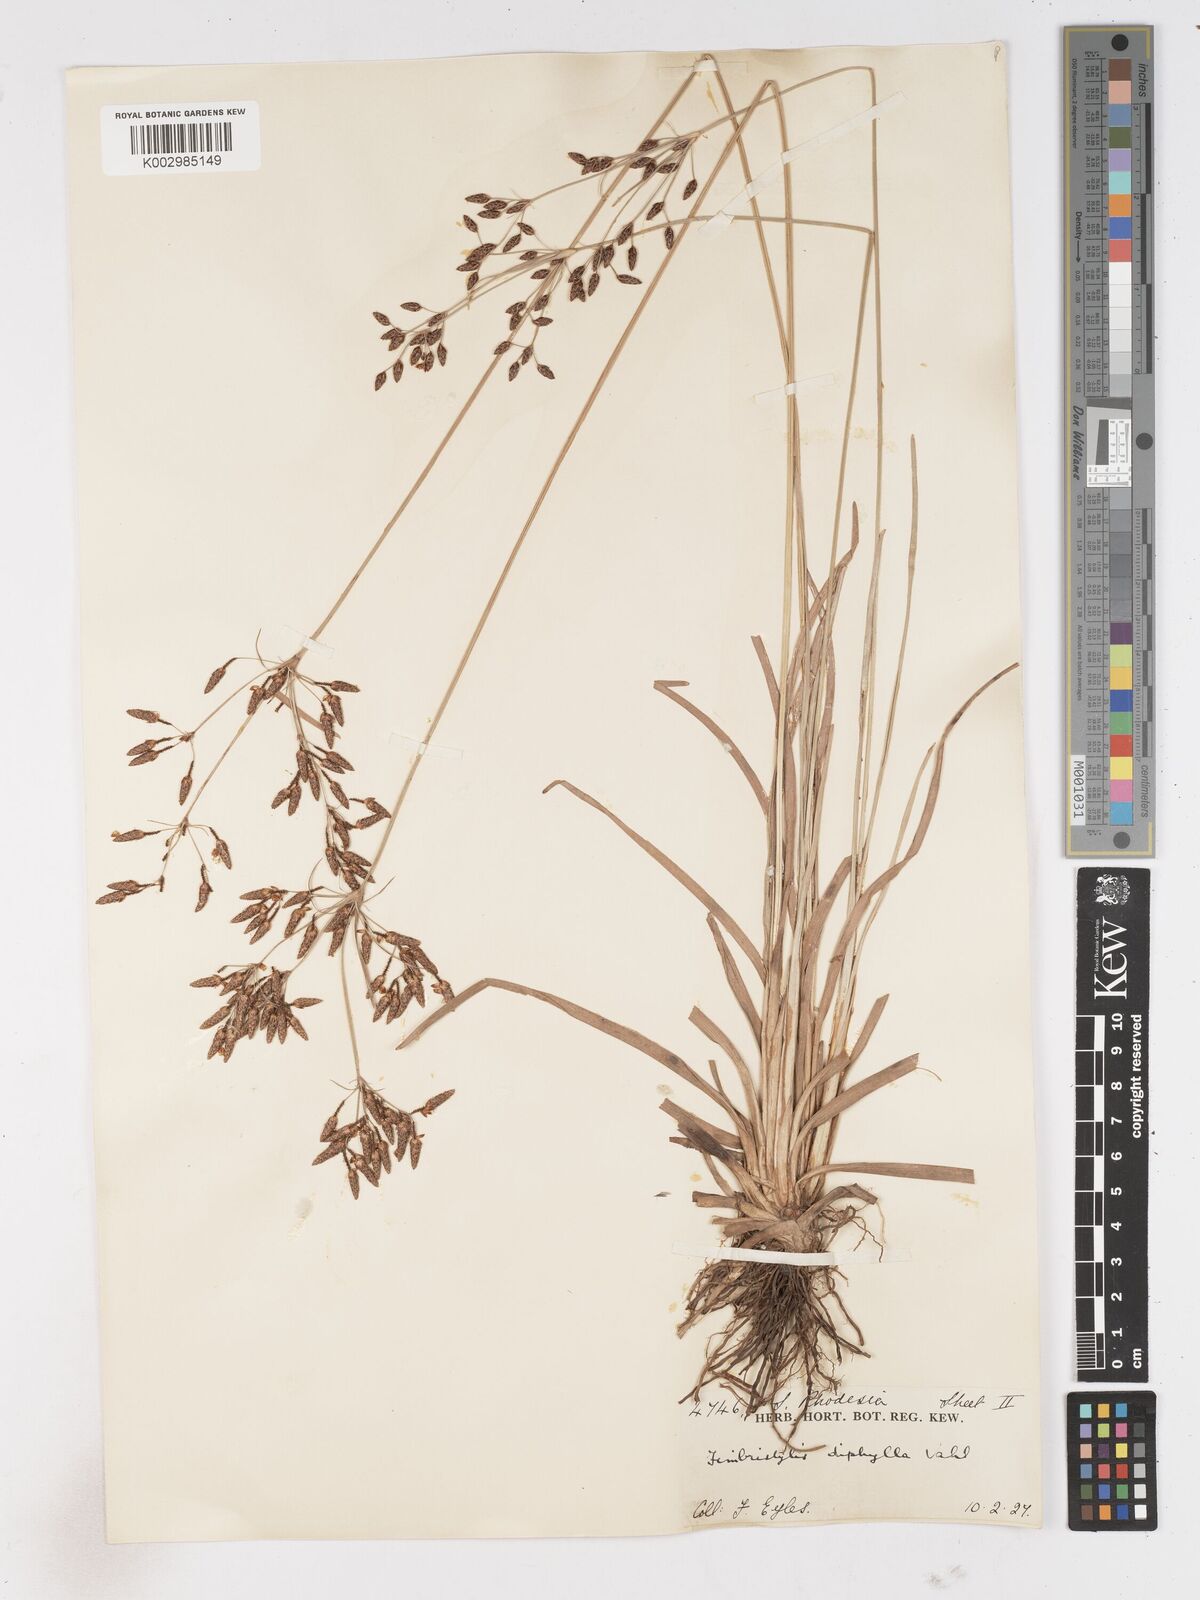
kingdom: Plantae
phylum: Tracheophyta
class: Liliopsida
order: Poales
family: Cyperaceae
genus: Fimbristylis
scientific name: Fimbristylis dichotoma
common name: Forked fimbry
